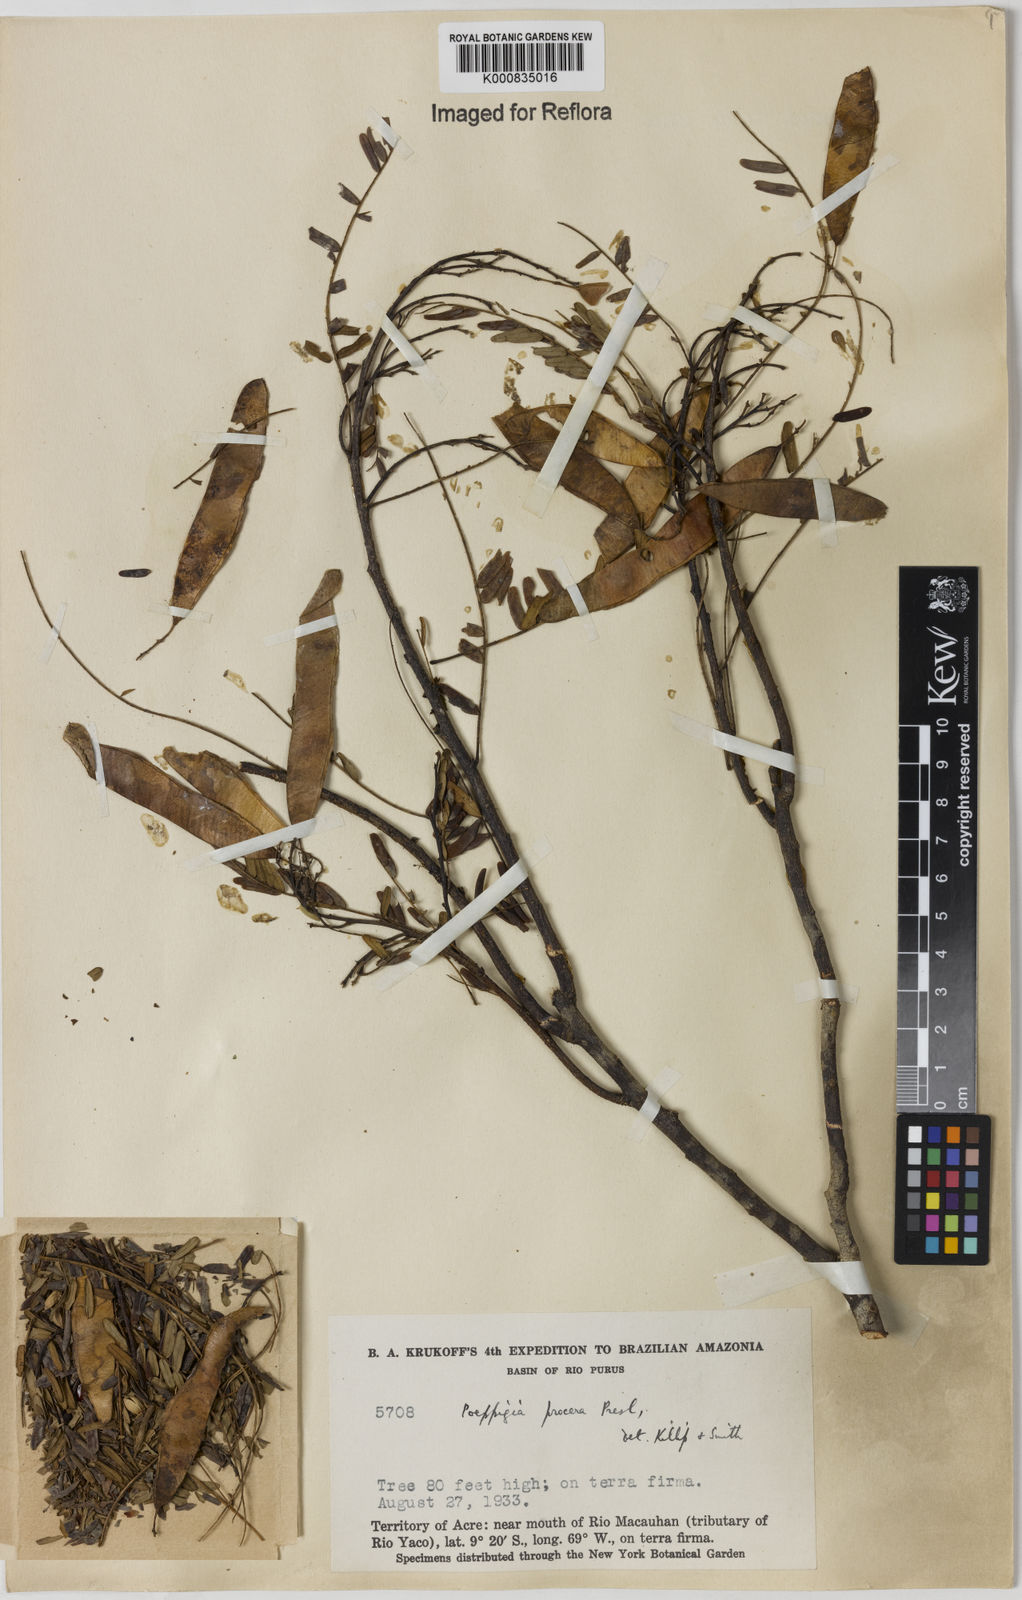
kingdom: Plantae
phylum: Tracheophyta
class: Magnoliopsida
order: Fabales
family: Fabaceae
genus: Poeppigia
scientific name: Poeppigia procera
